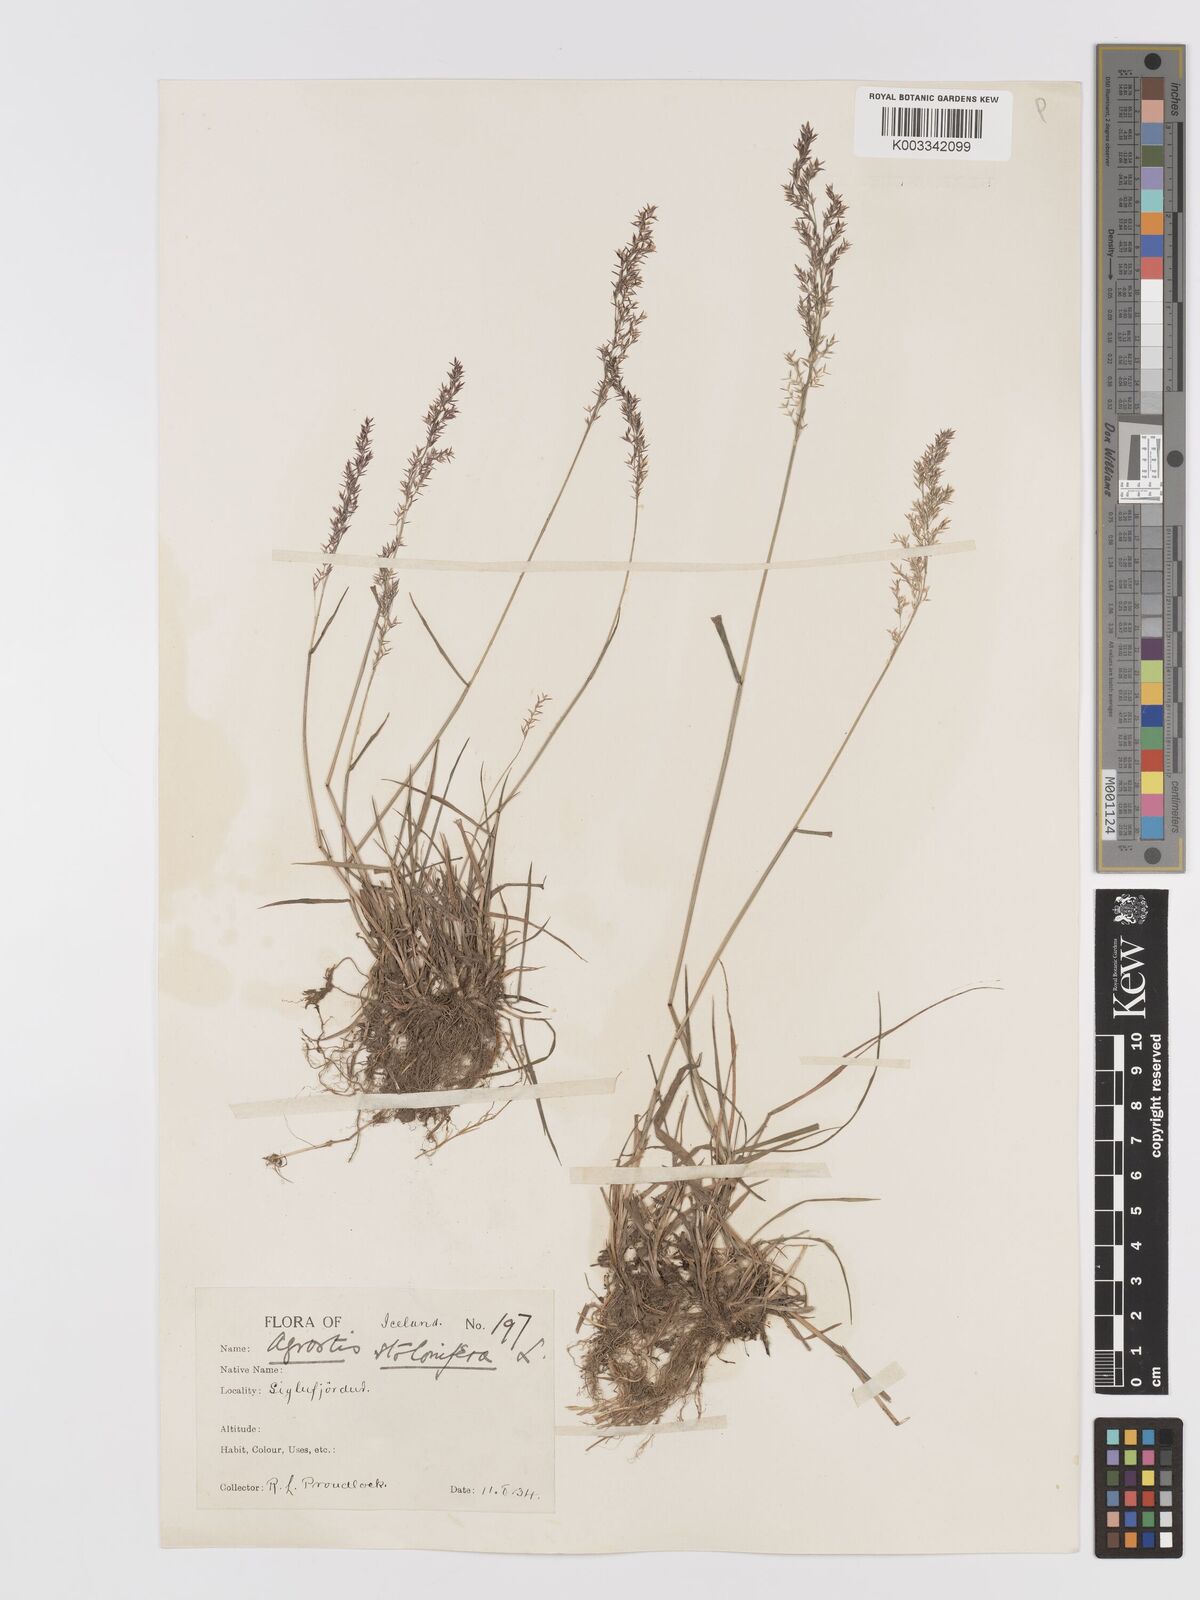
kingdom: Plantae
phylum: Tracheophyta
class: Liliopsida
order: Poales
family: Poaceae
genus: Agrostis
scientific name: Agrostis stolonifera
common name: Creeping bentgrass
